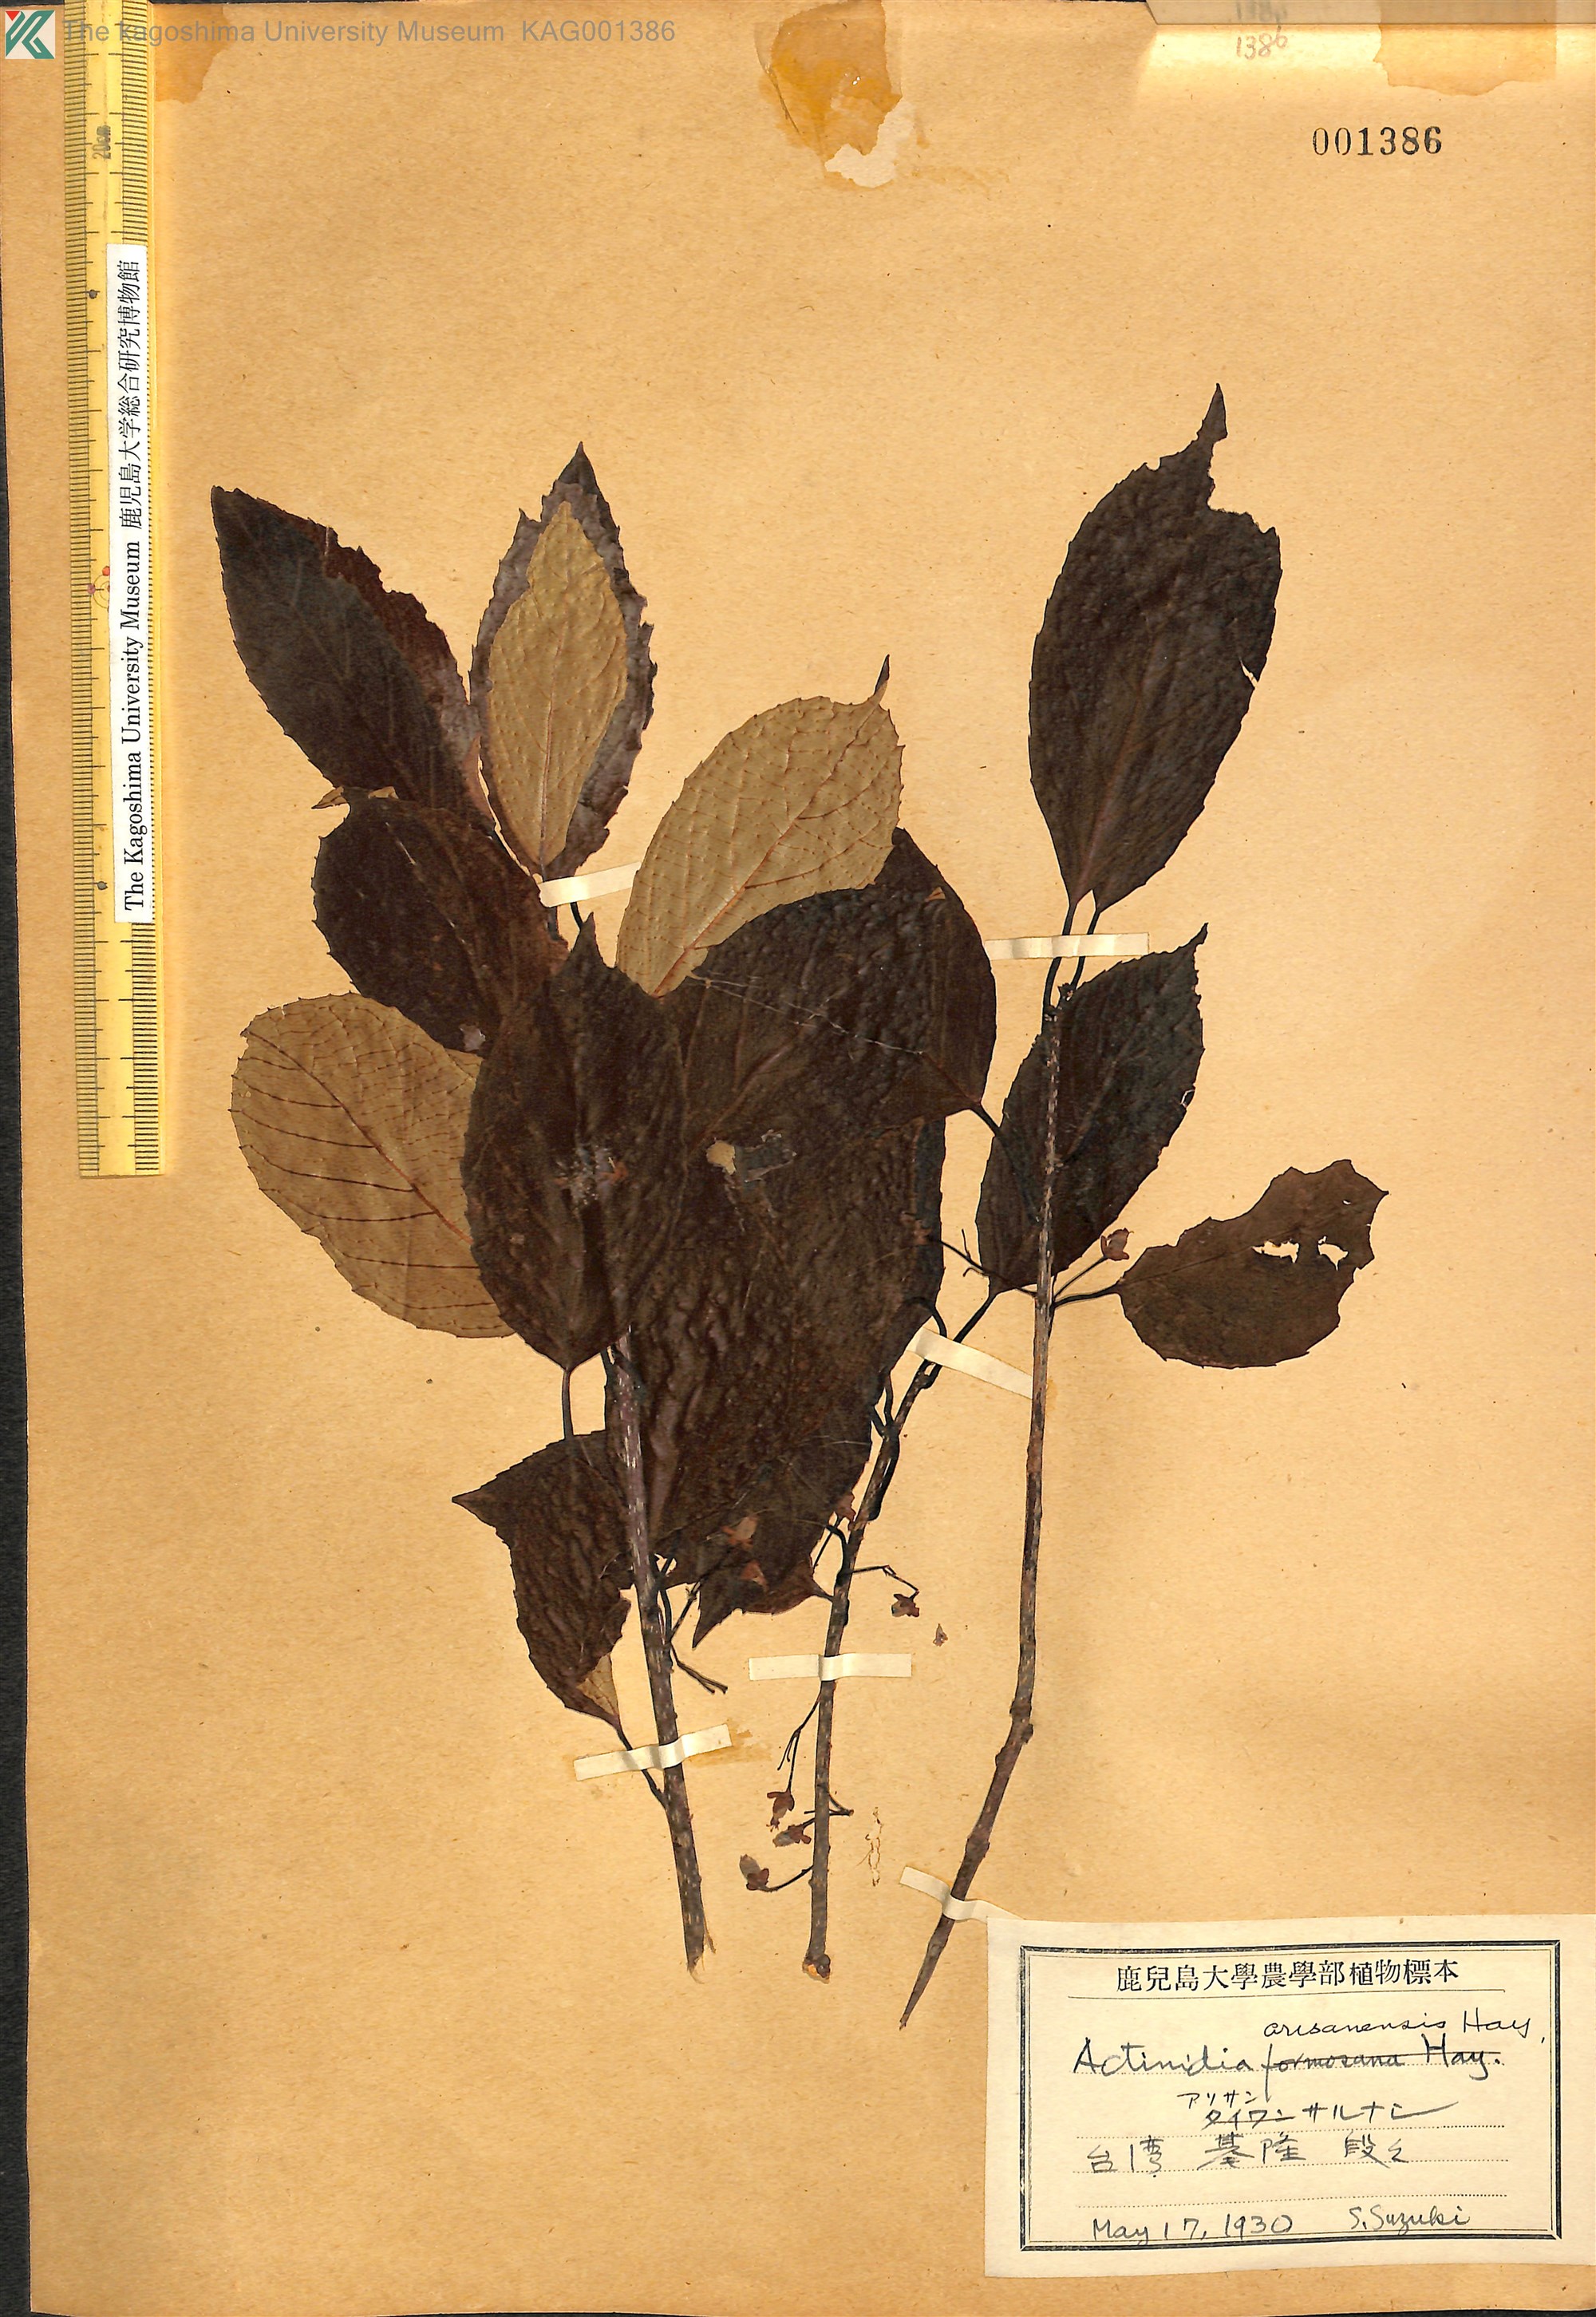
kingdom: Plantae
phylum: Tracheophyta
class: Magnoliopsida
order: Ericales
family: Actinidiaceae
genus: Actinidia
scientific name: Actinidia callosa
